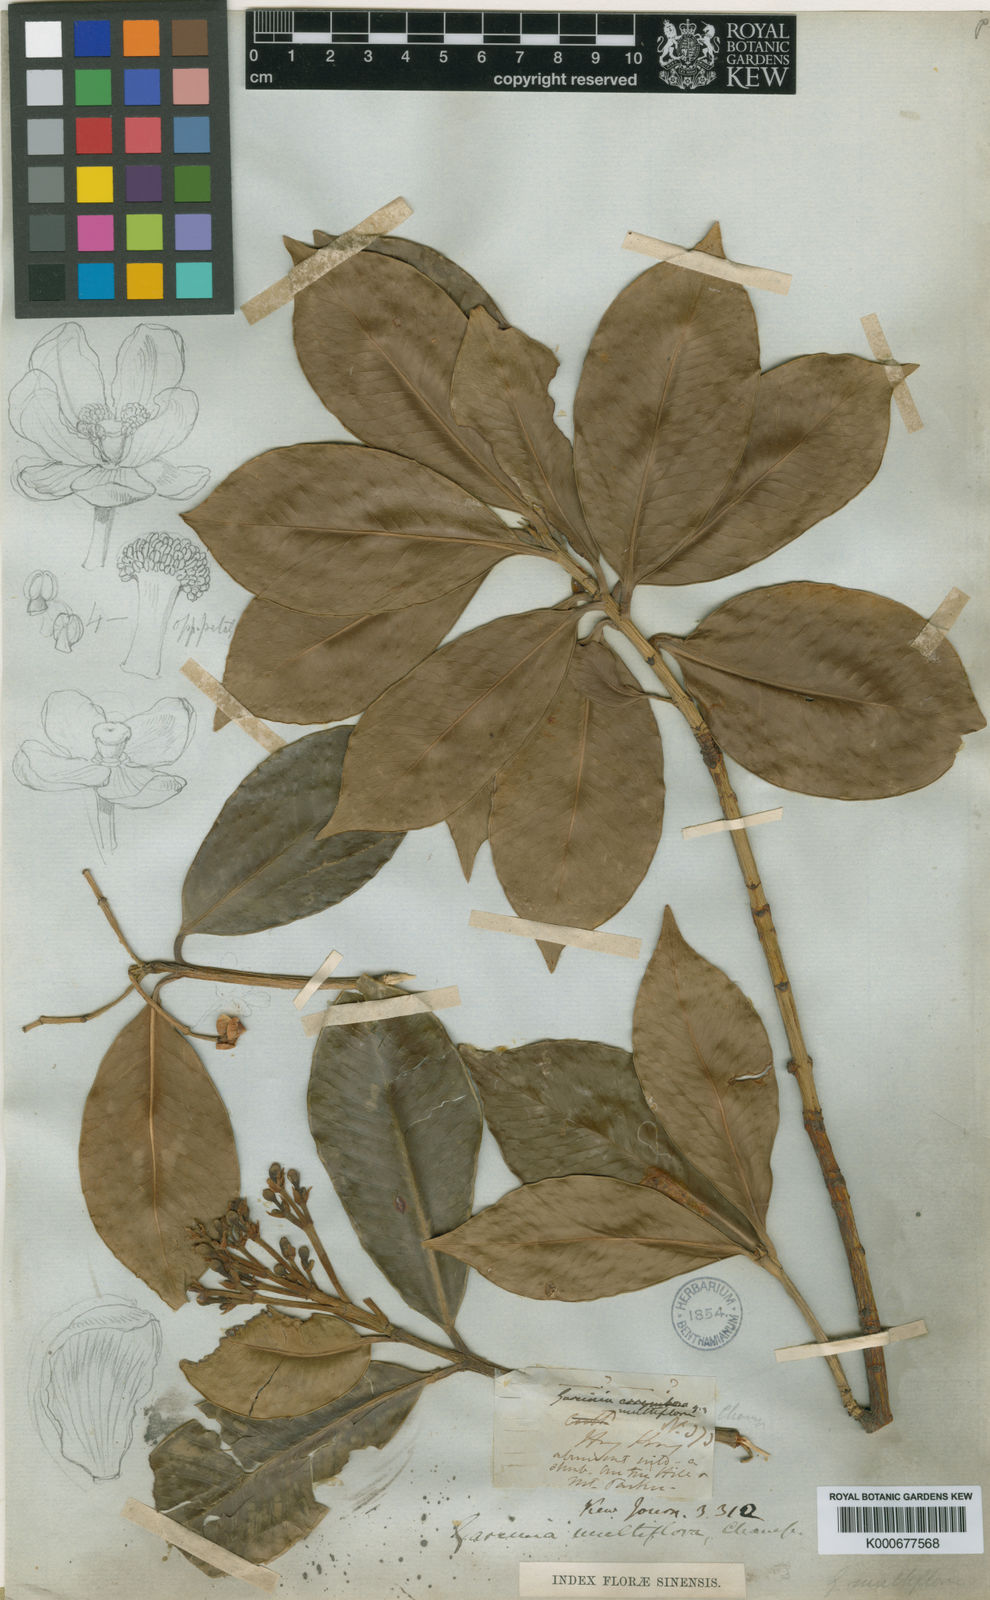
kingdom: Plantae
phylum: Tracheophyta
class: Magnoliopsida
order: Malpighiales
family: Clusiaceae
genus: Garcinia
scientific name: Garcinia multiflora
